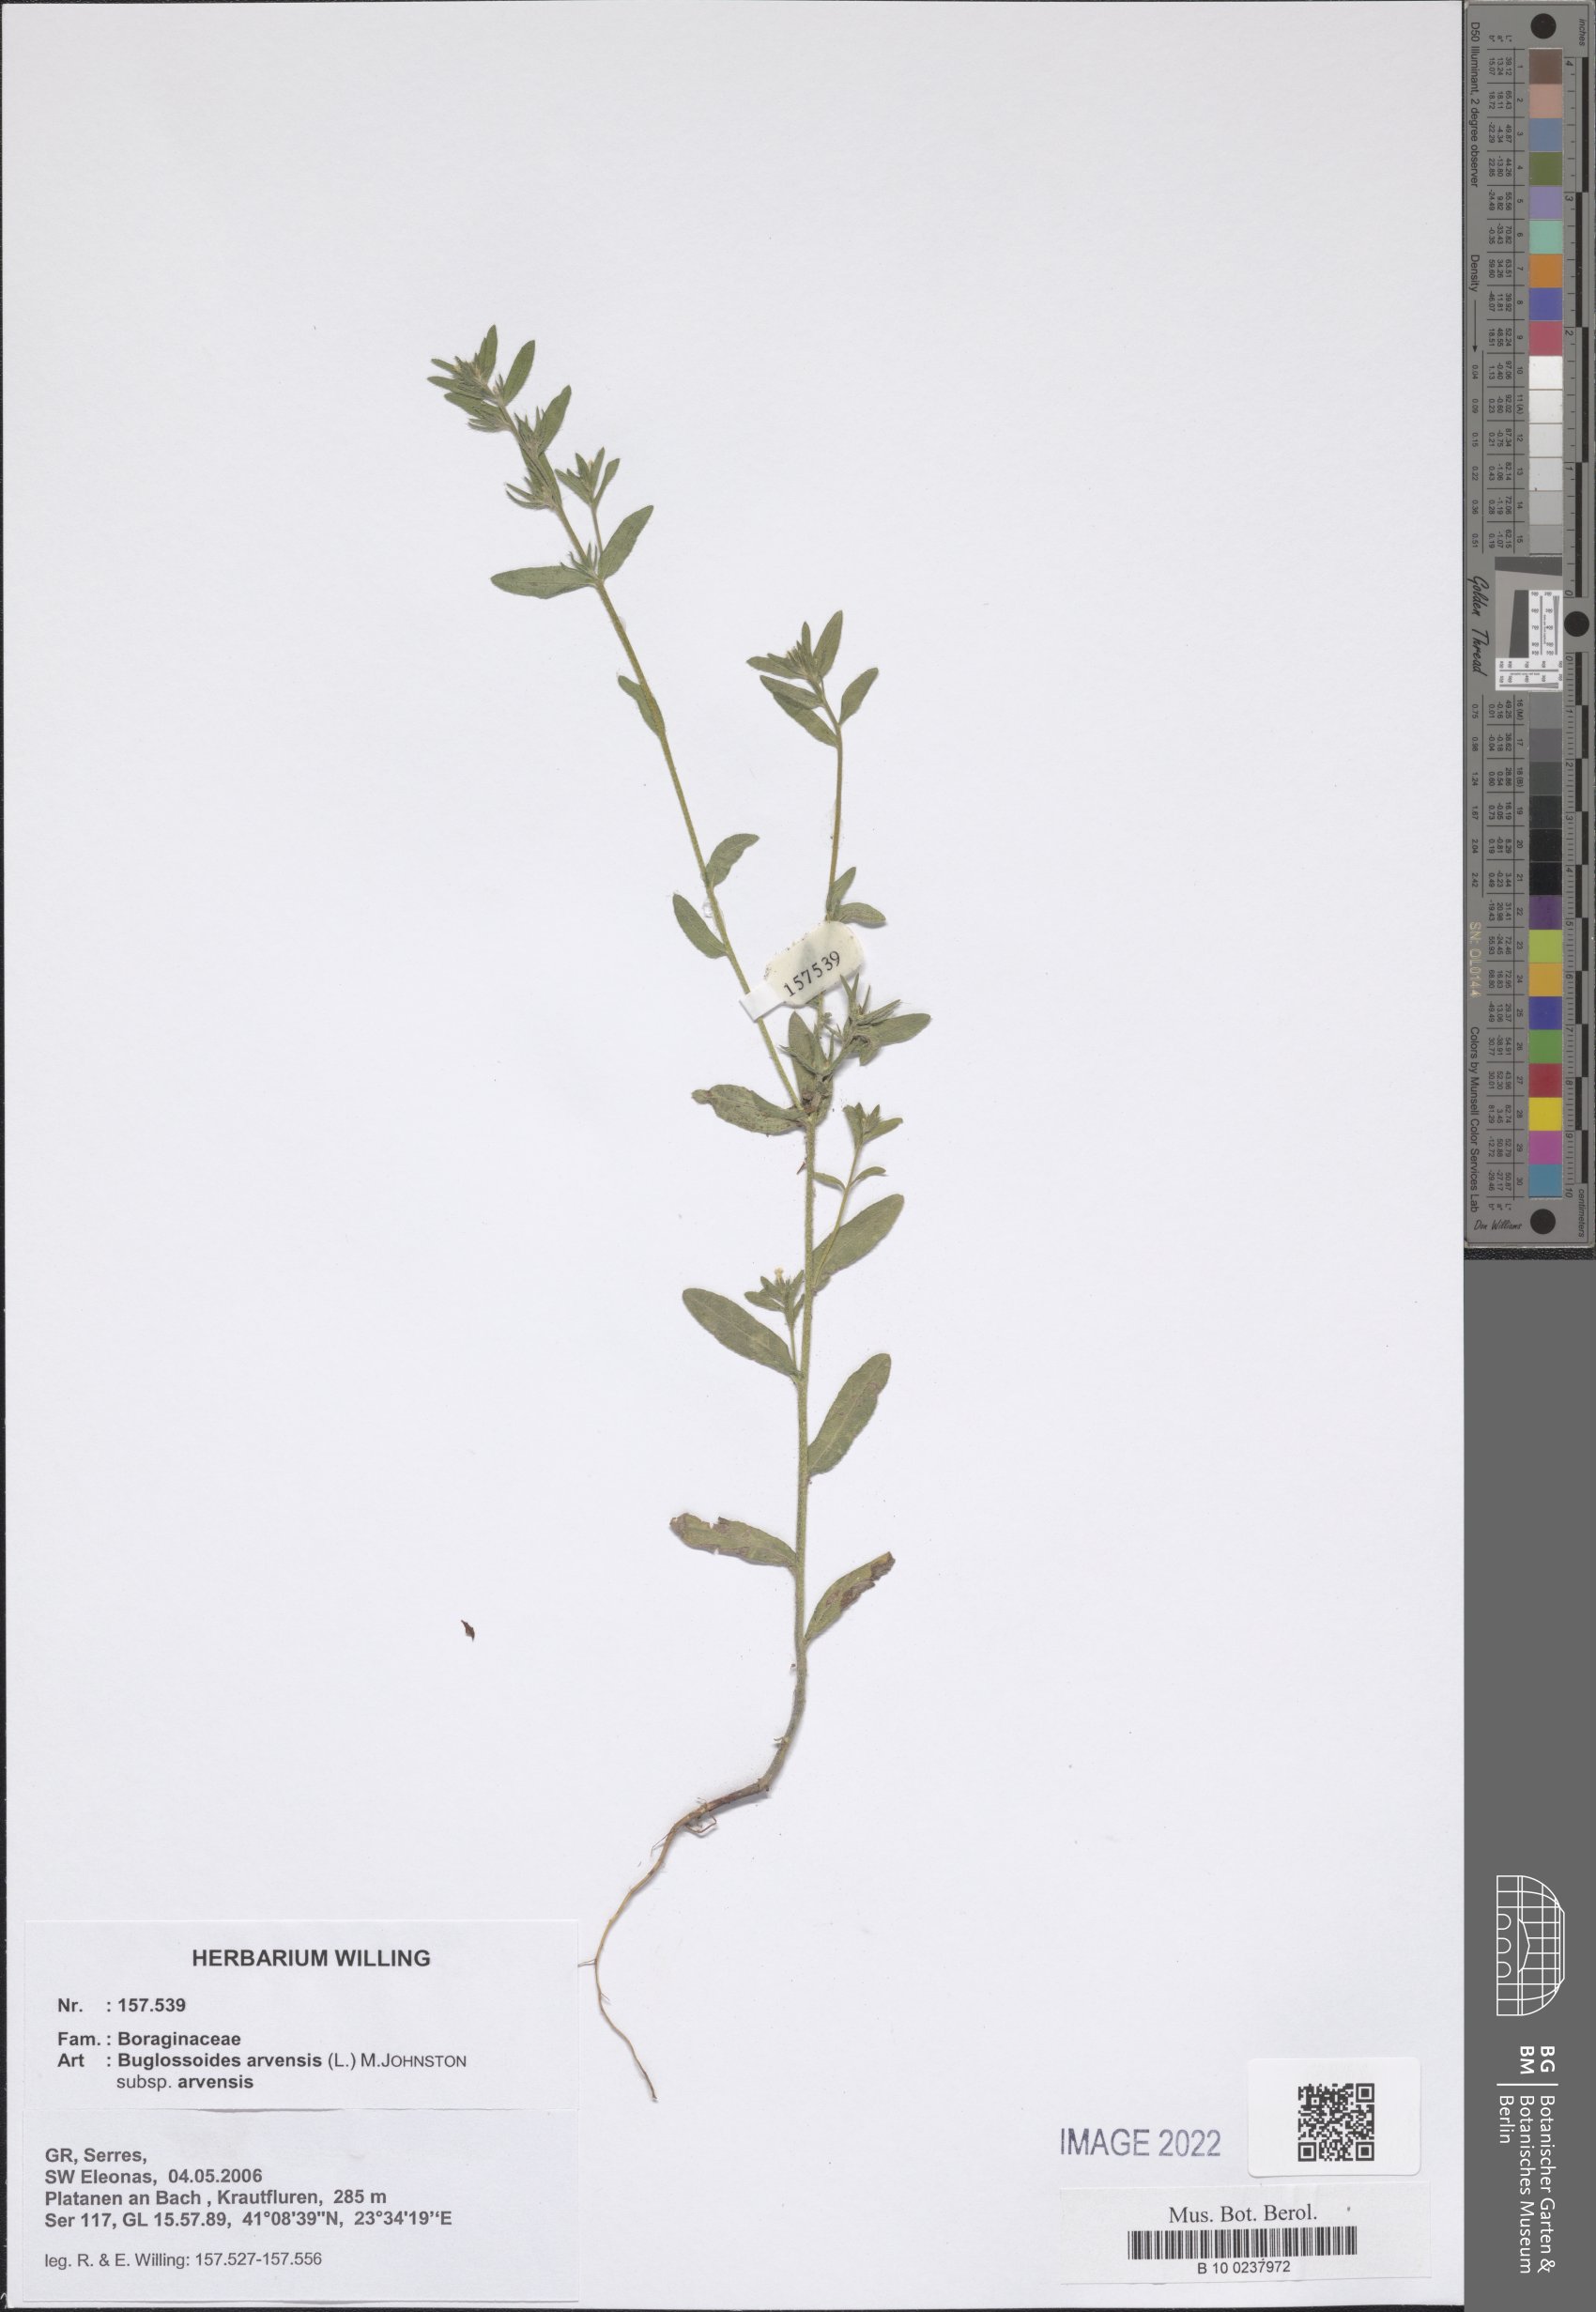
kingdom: Plantae
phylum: Tracheophyta
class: Magnoliopsida
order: Boraginales
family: Boraginaceae
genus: Buglossoides
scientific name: Buglossoides arvensis
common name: Corn gromwell
